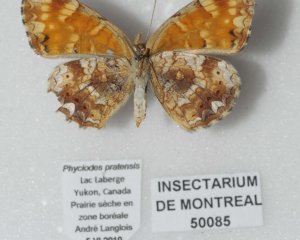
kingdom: Animalia
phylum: Arthropoda
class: Insecta
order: Lepidoptera
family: Nymphalidae
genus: Phyciodes
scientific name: Phyciodes tharos
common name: Field Crescent
